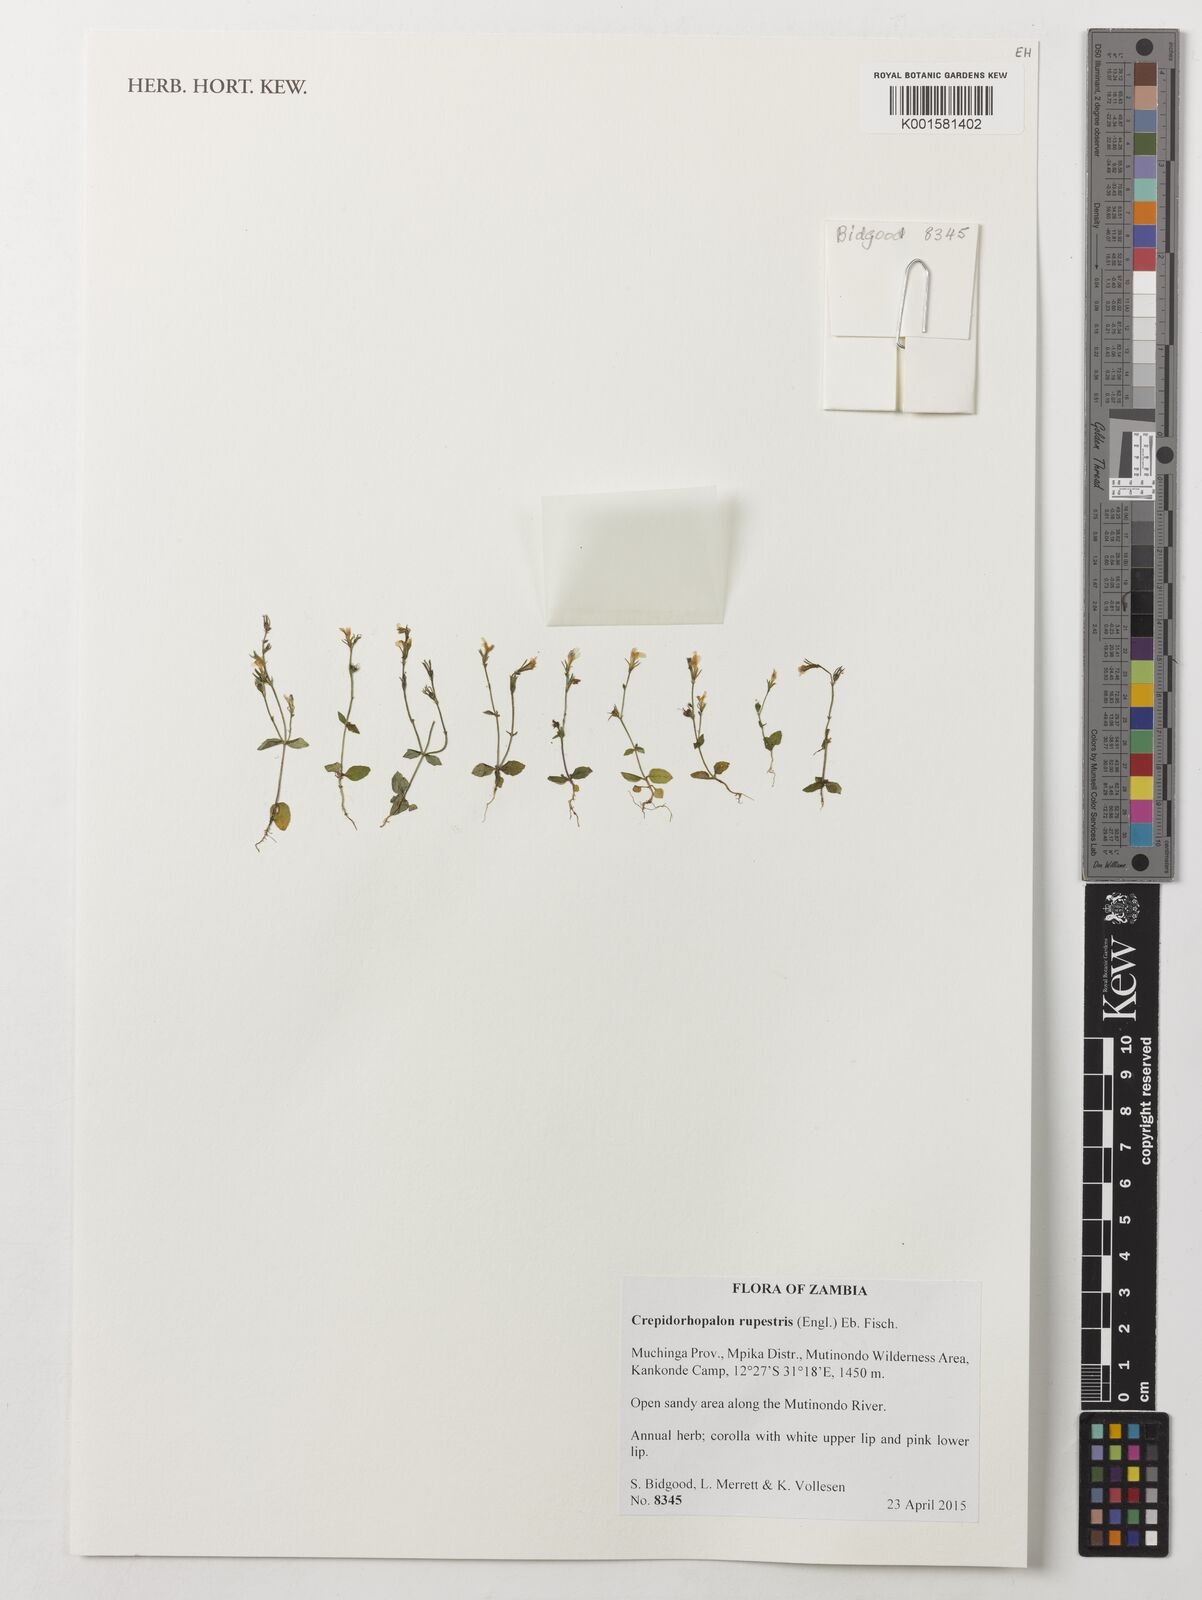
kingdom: Plantae
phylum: Tracheophyta
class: Magnoliopsida
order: Lamiales
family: Linderniaceae
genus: Crepidorhopalon
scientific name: Crepidorhopalon rupestris
